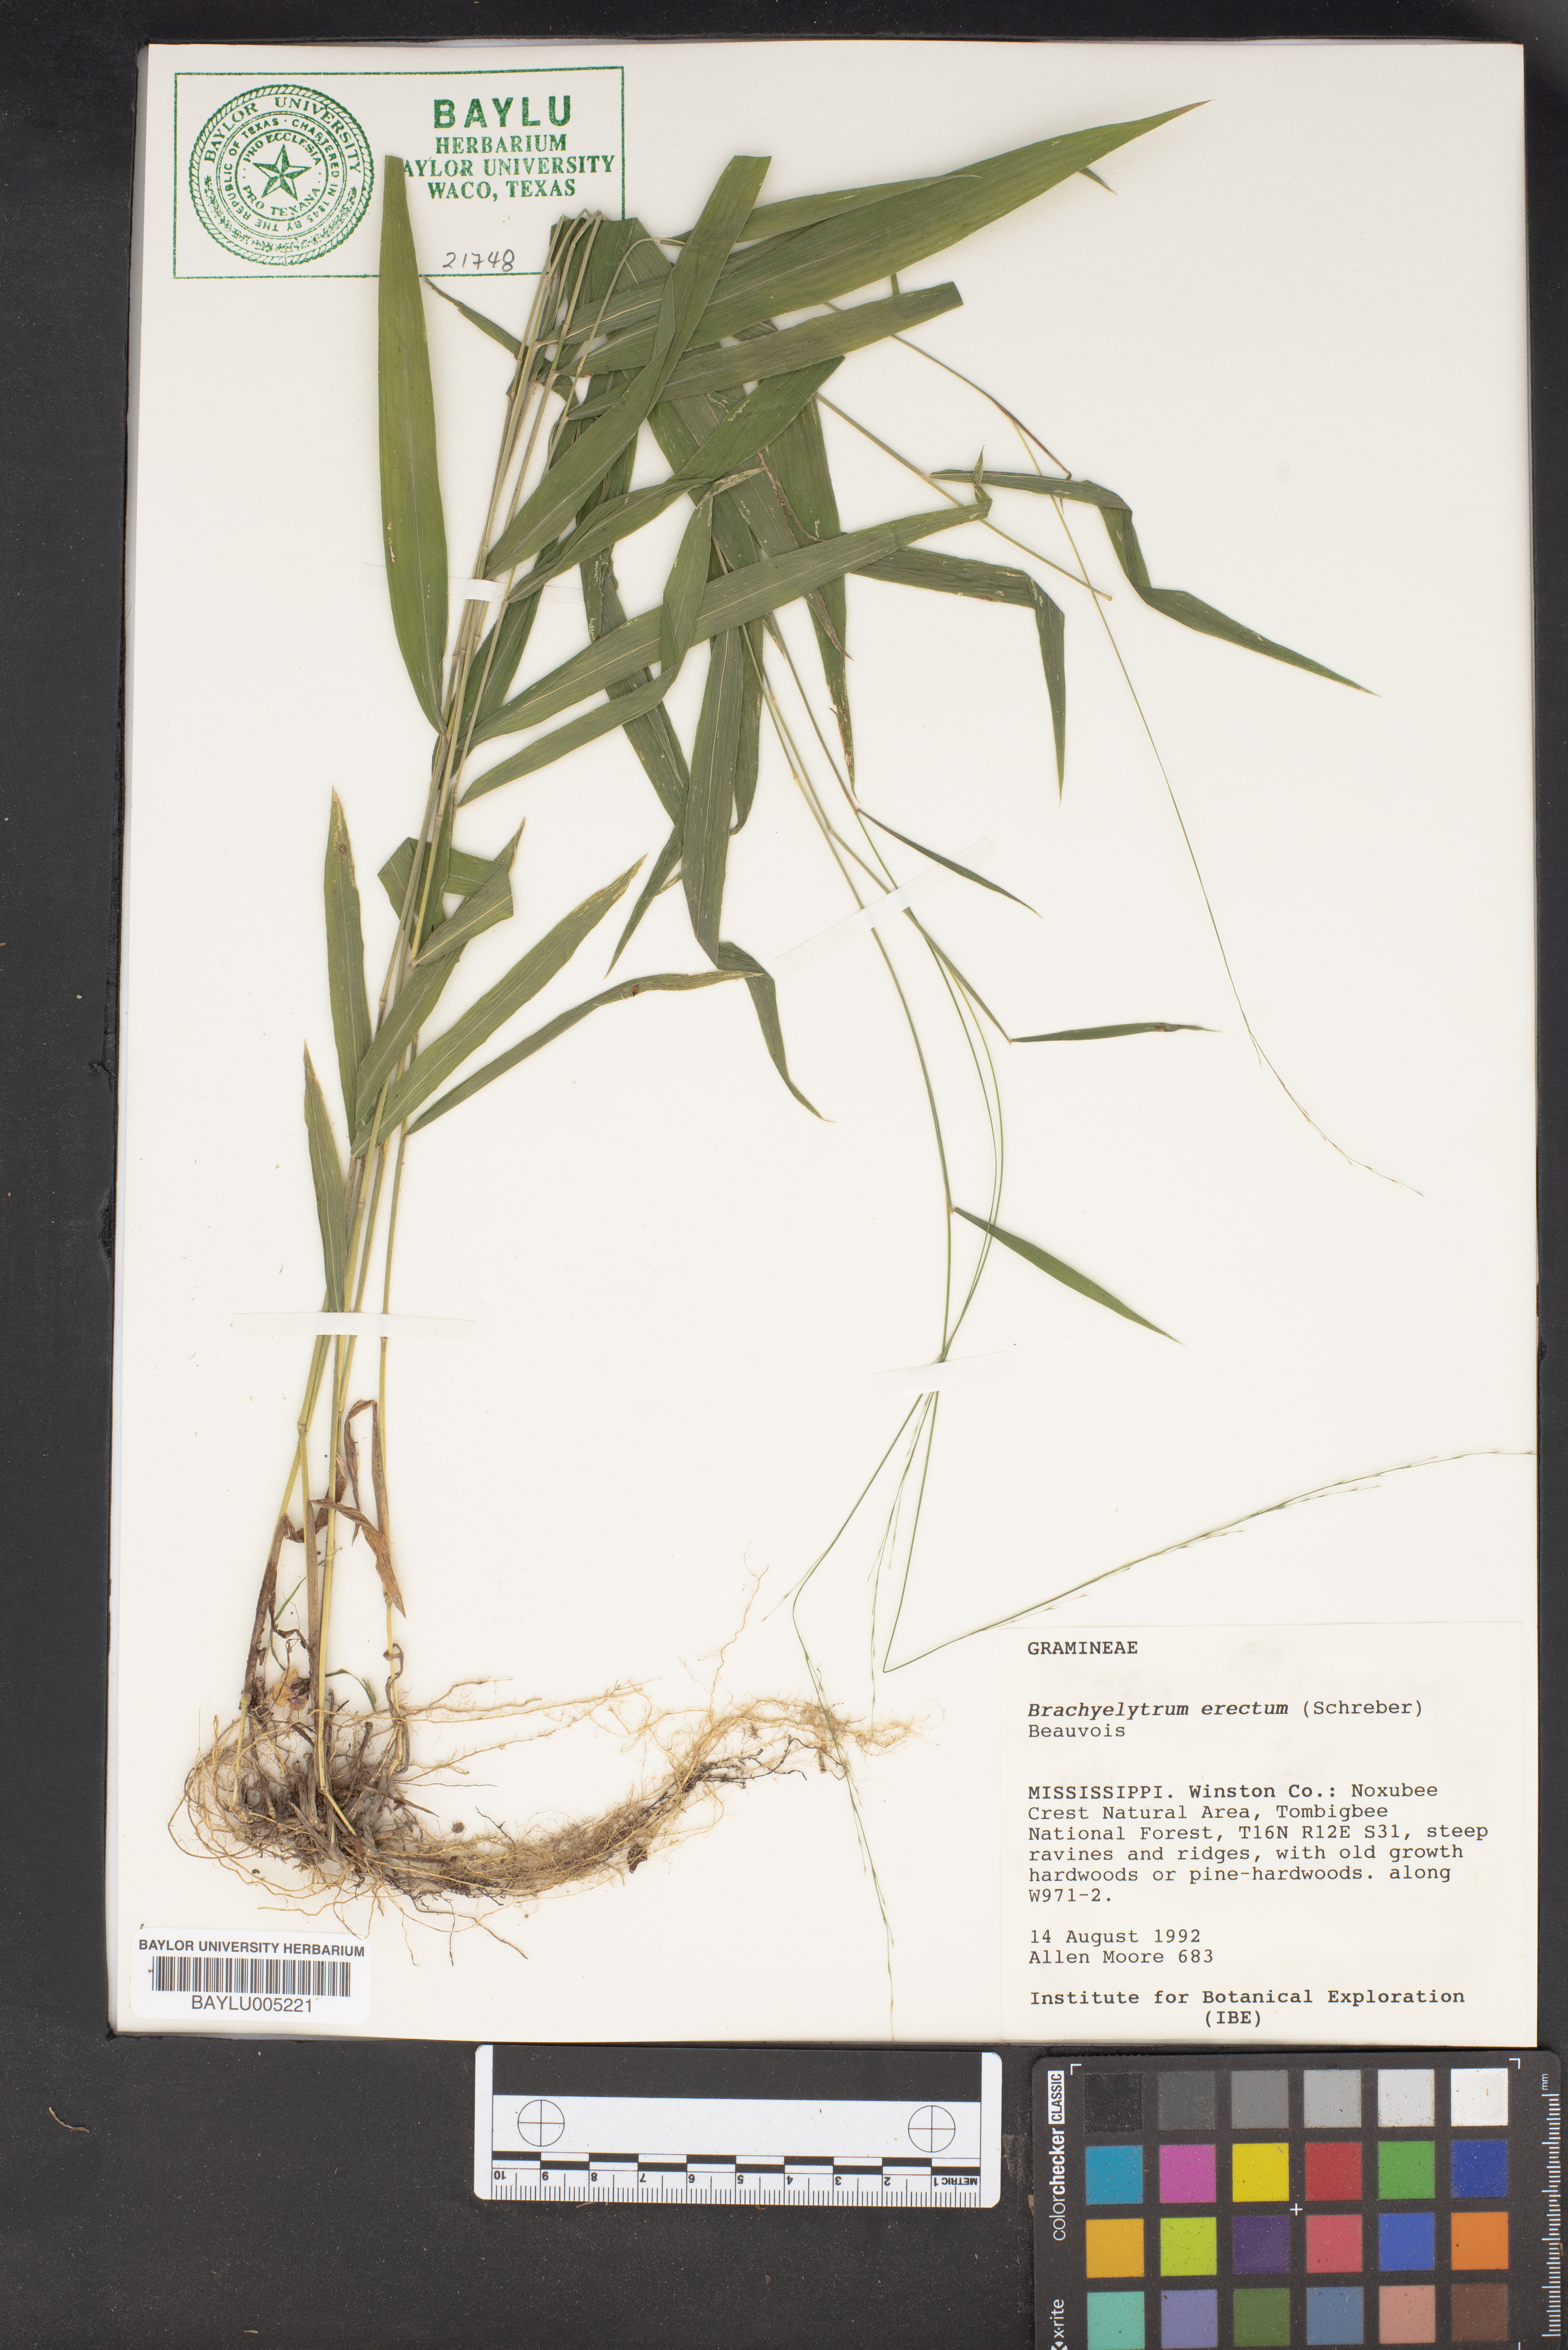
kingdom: Plantae
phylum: Tracheophyta
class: Liliopsida
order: Poales
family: Poaceae
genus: Brachyelytrum
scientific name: Brachyelytrum erectum
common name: Bearded shorthusk
